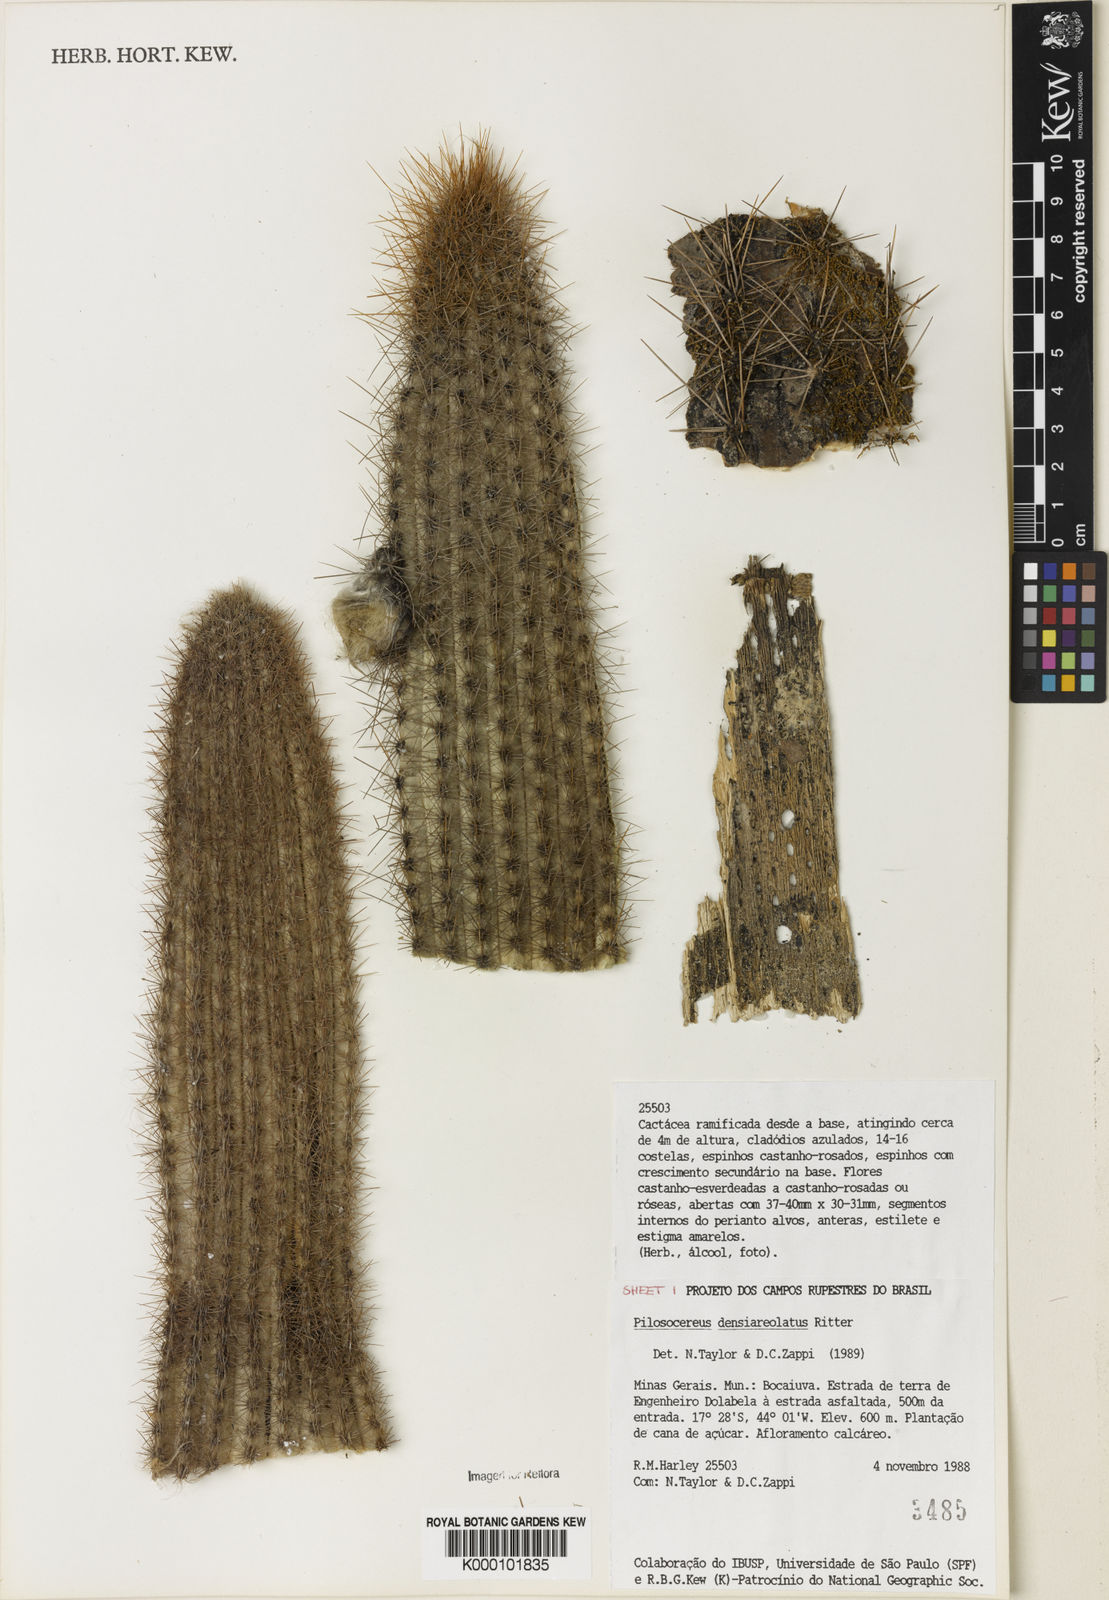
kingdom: Plantae
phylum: Tracheophyta
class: Magnoliopsida
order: Caryophyllales
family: Cactaceae
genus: Pilosocereus
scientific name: Pilosocereus densiareolatus
